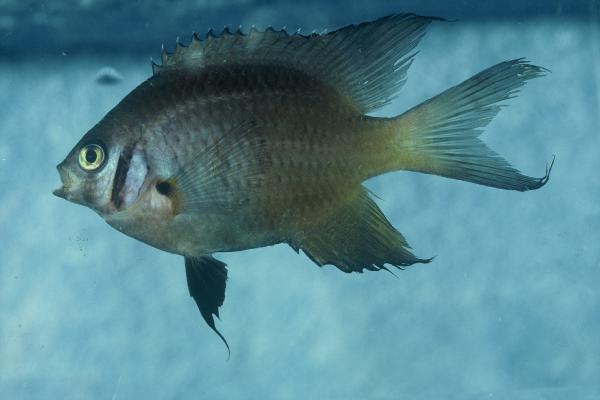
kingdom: Animalia
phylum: Chordata
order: Perciformes
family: Pomacentridae
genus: Chromis
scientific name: Chromis opercularis
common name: Doublebar chromis
